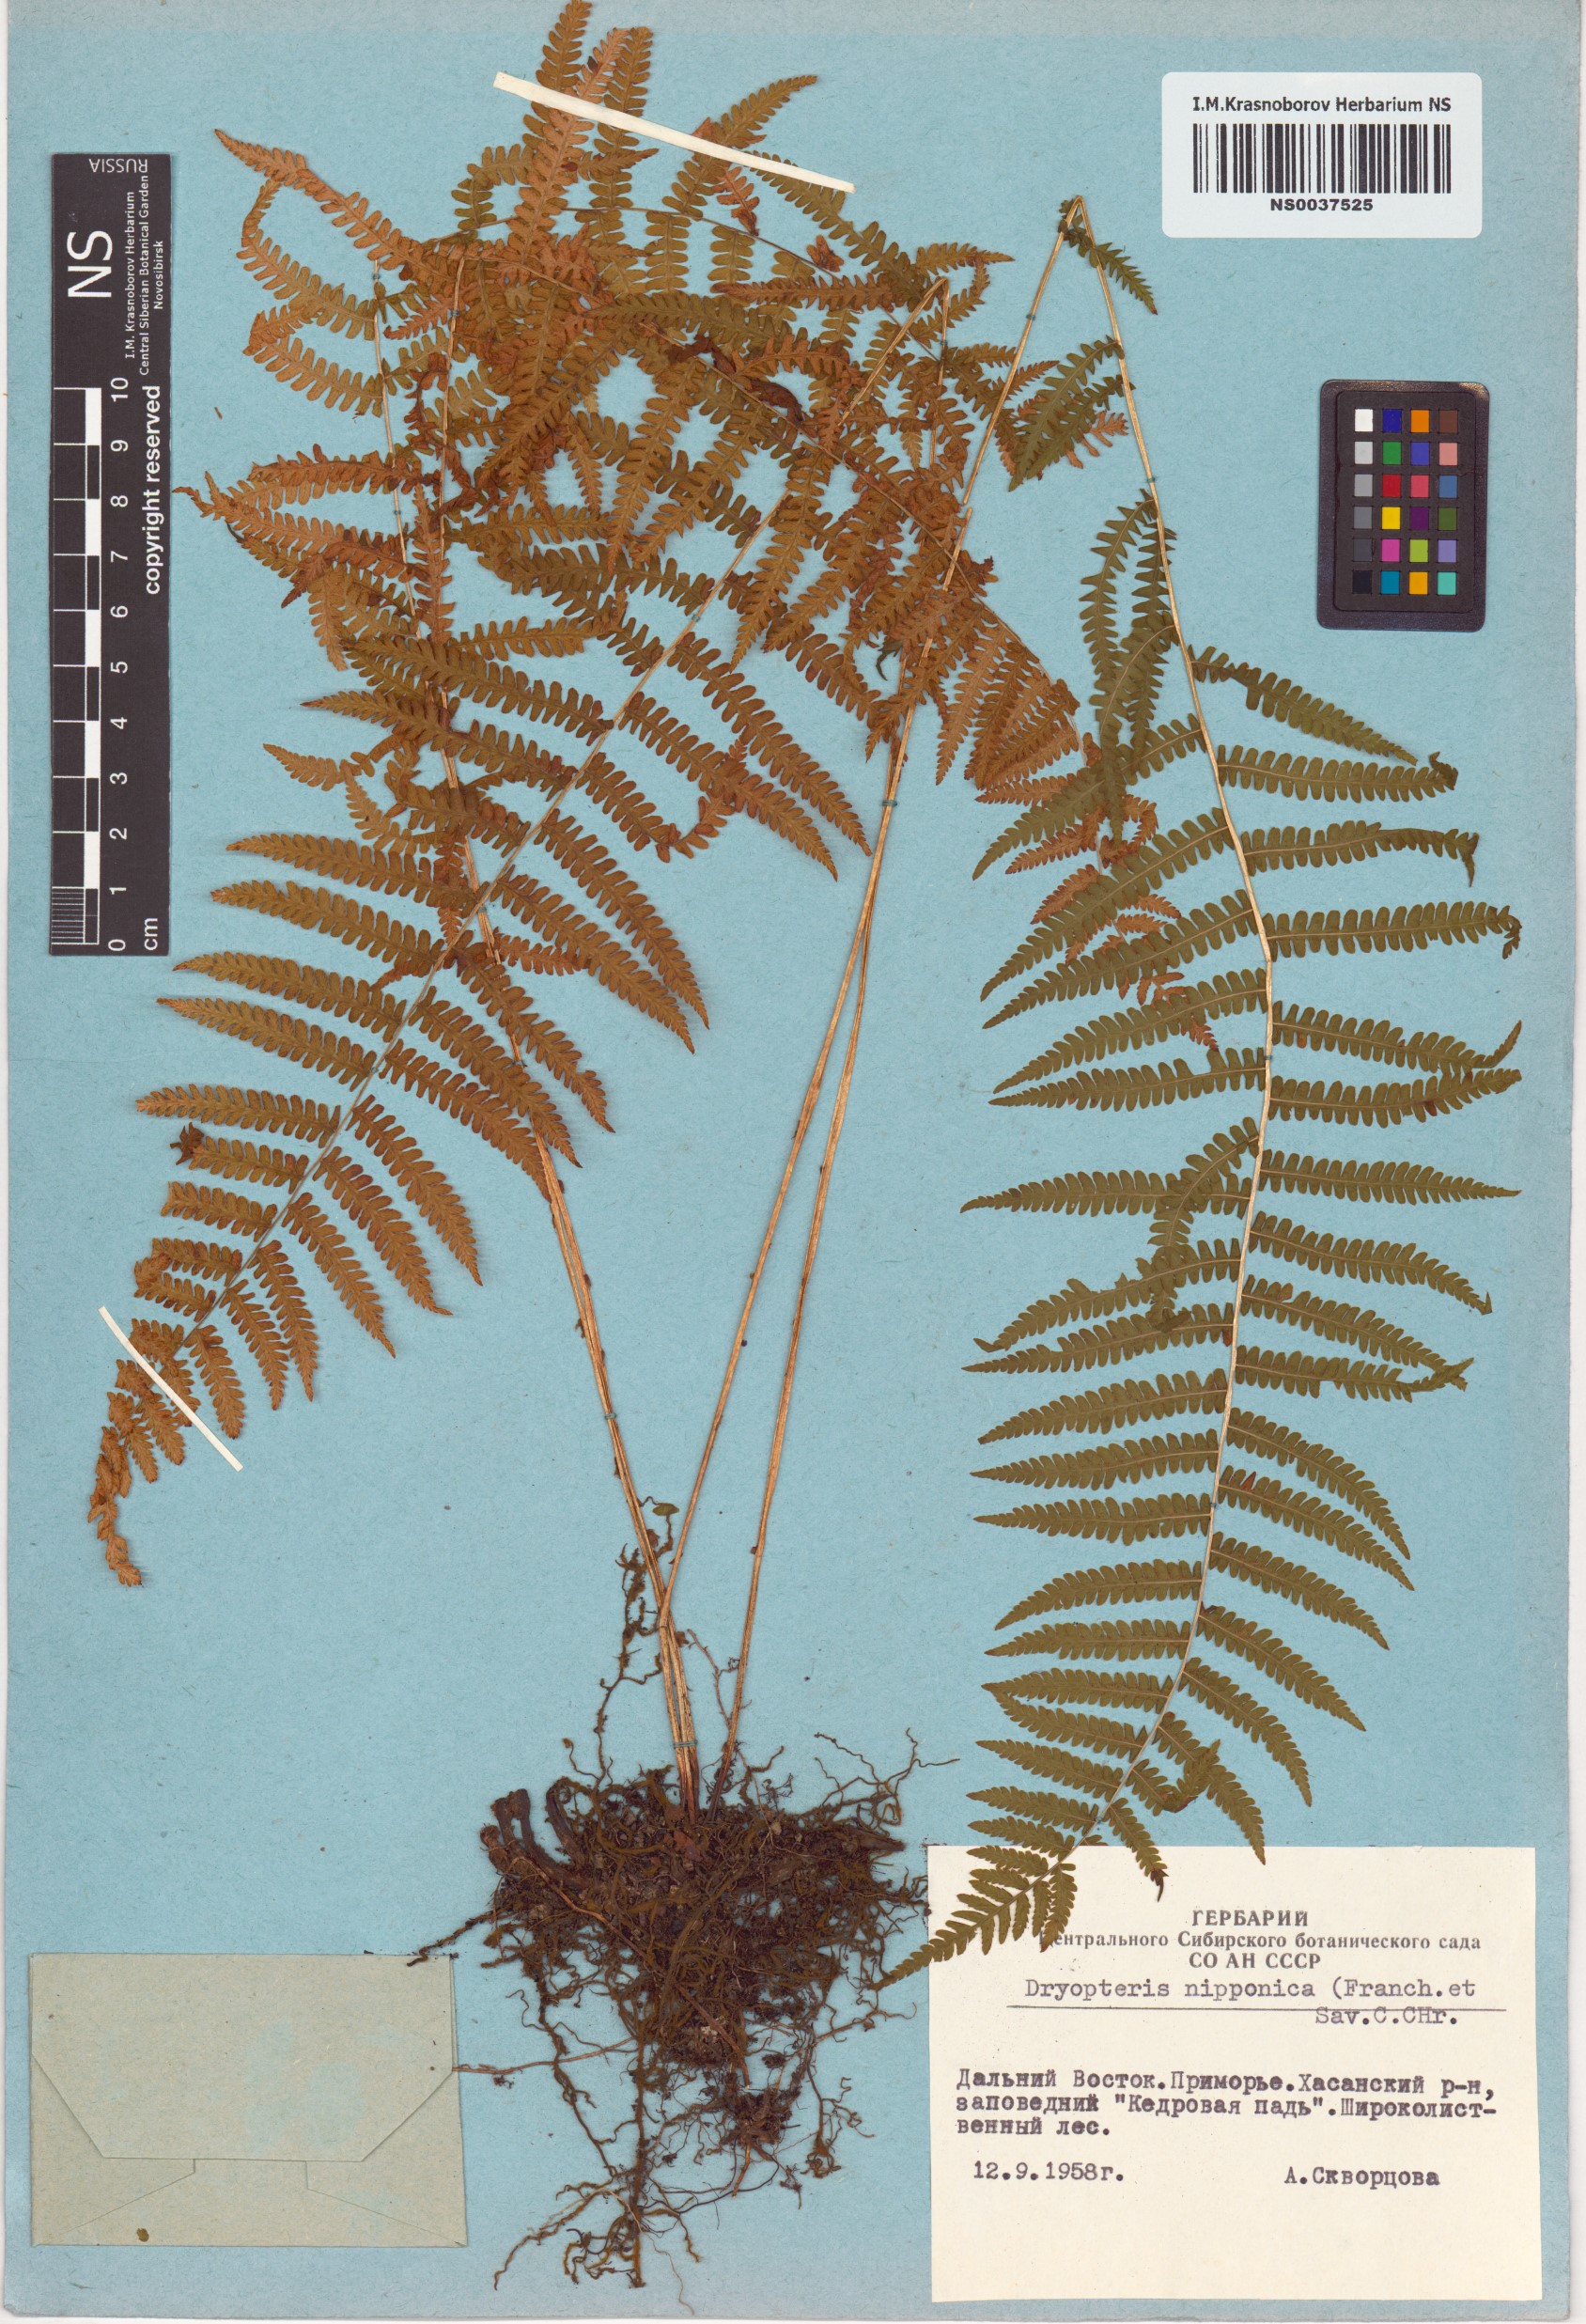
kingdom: Plantae
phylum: Tracheophyta
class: Polypodiopsida
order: Polypodiales
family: Thelypteridaceae
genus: Coryphopteris
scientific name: Coryphopteris nipponica
